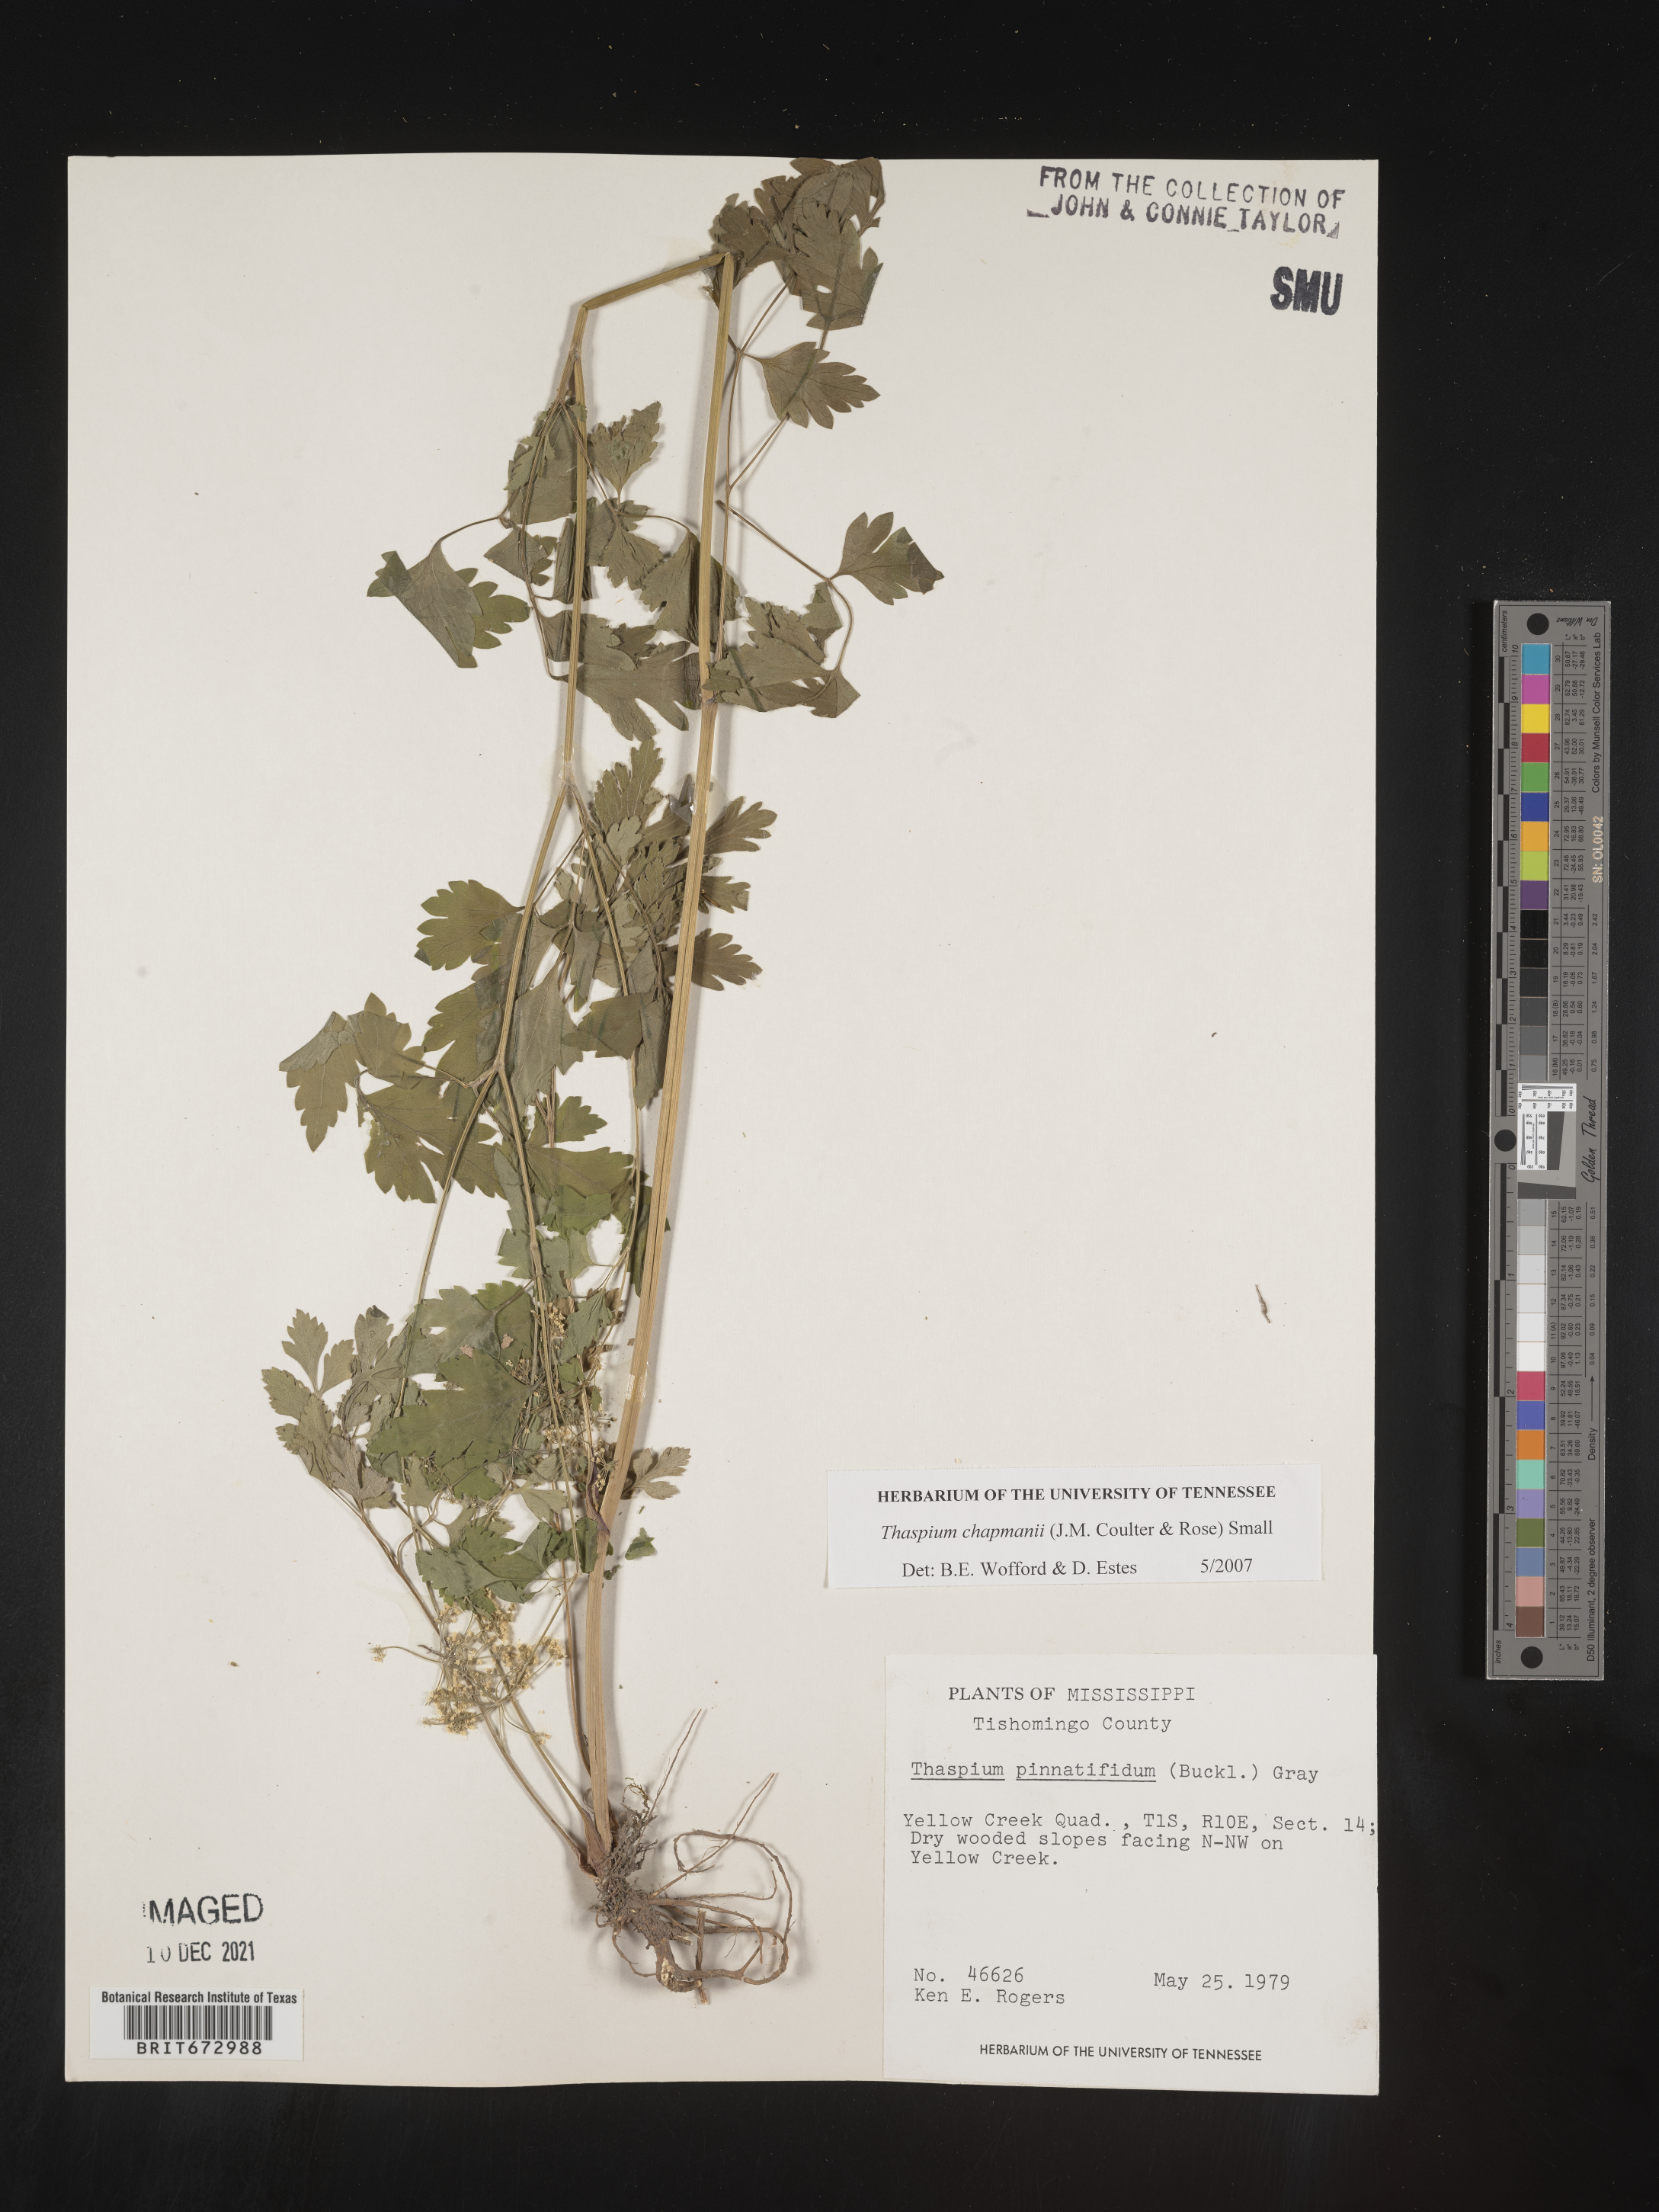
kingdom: Plantae
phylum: Tracheophyta
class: Magnoliopsida
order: Apiales
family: Apiaceae
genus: Thaspium
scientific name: Thaspium barbinode
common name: Bearded meadow-parsnip
